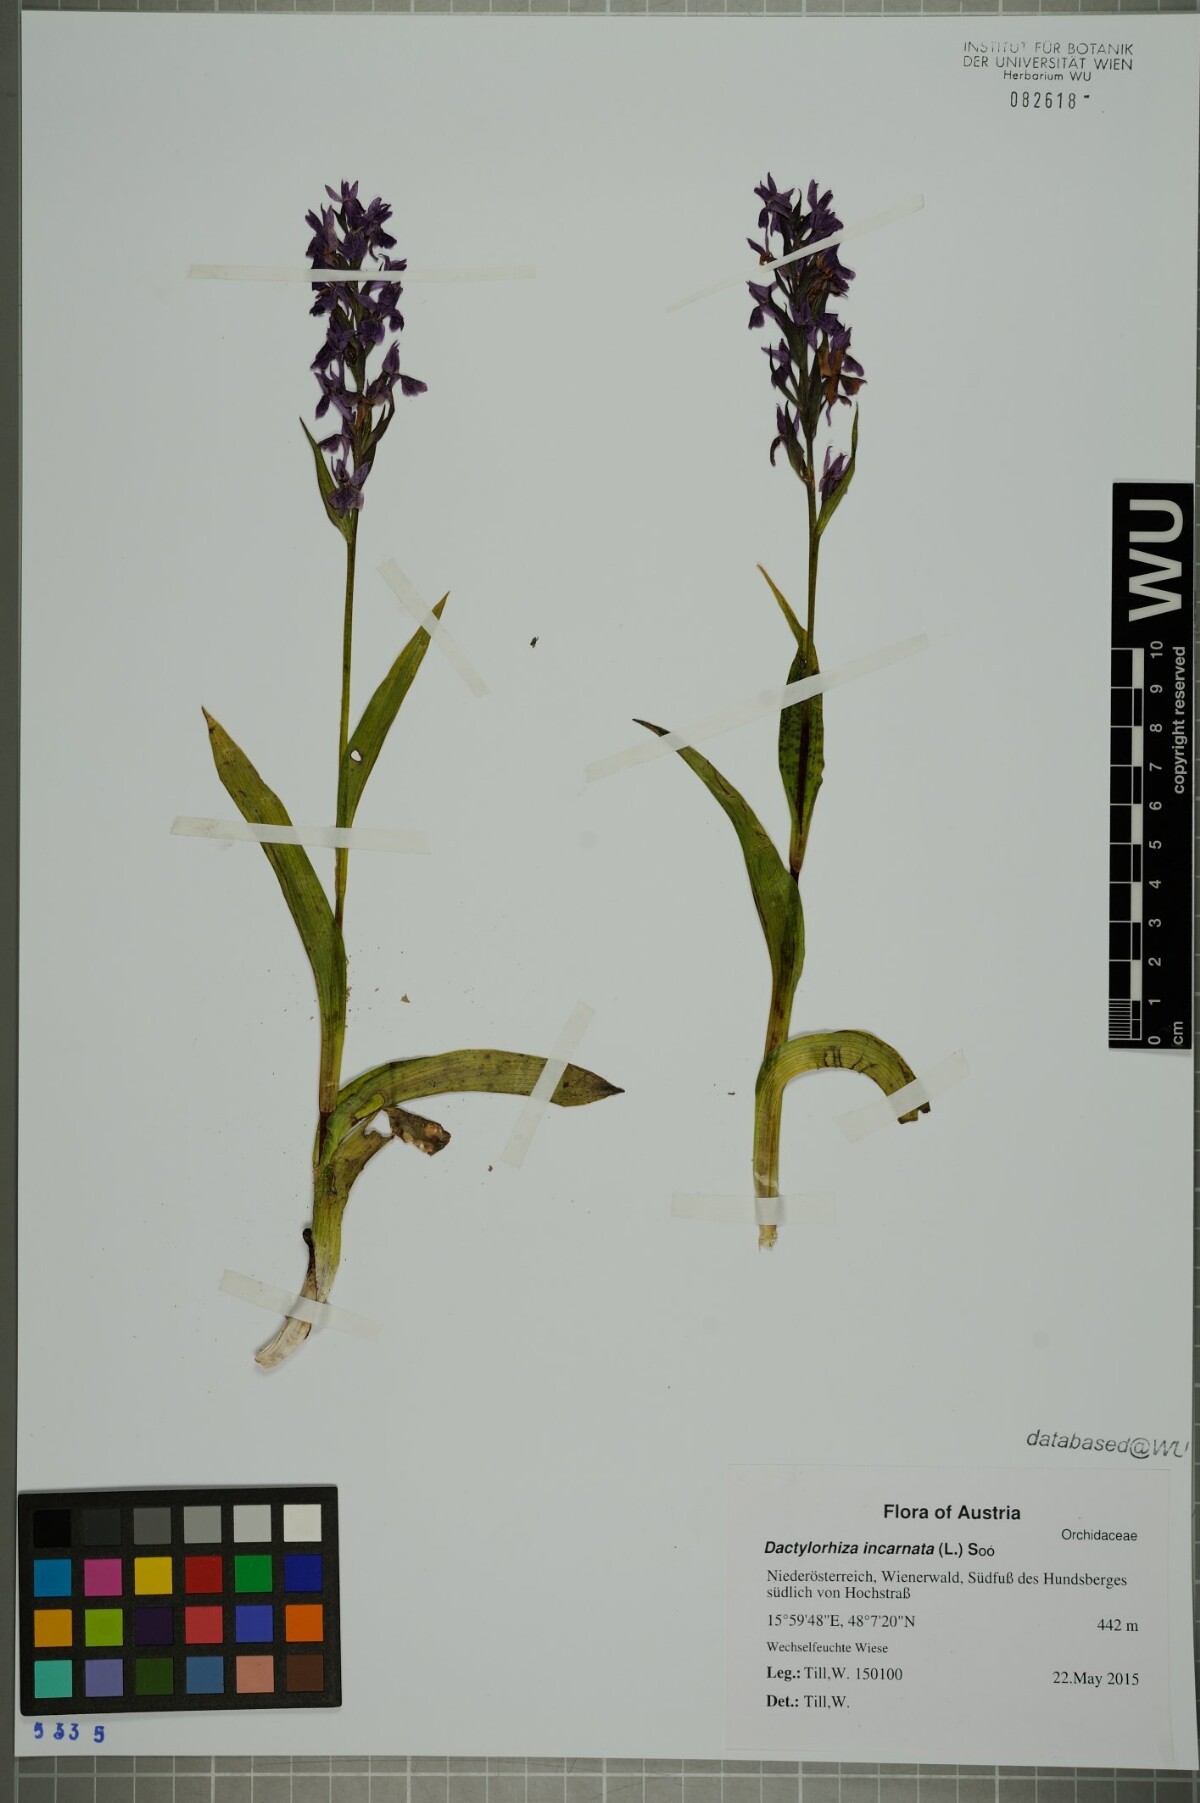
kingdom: Plantae
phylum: Tracheophyta
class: Liliopsida
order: Asparagales
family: Orchidaceae
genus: Dactylorhiza
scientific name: Dactylorhiza incarnata
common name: Early marsh-orchid
